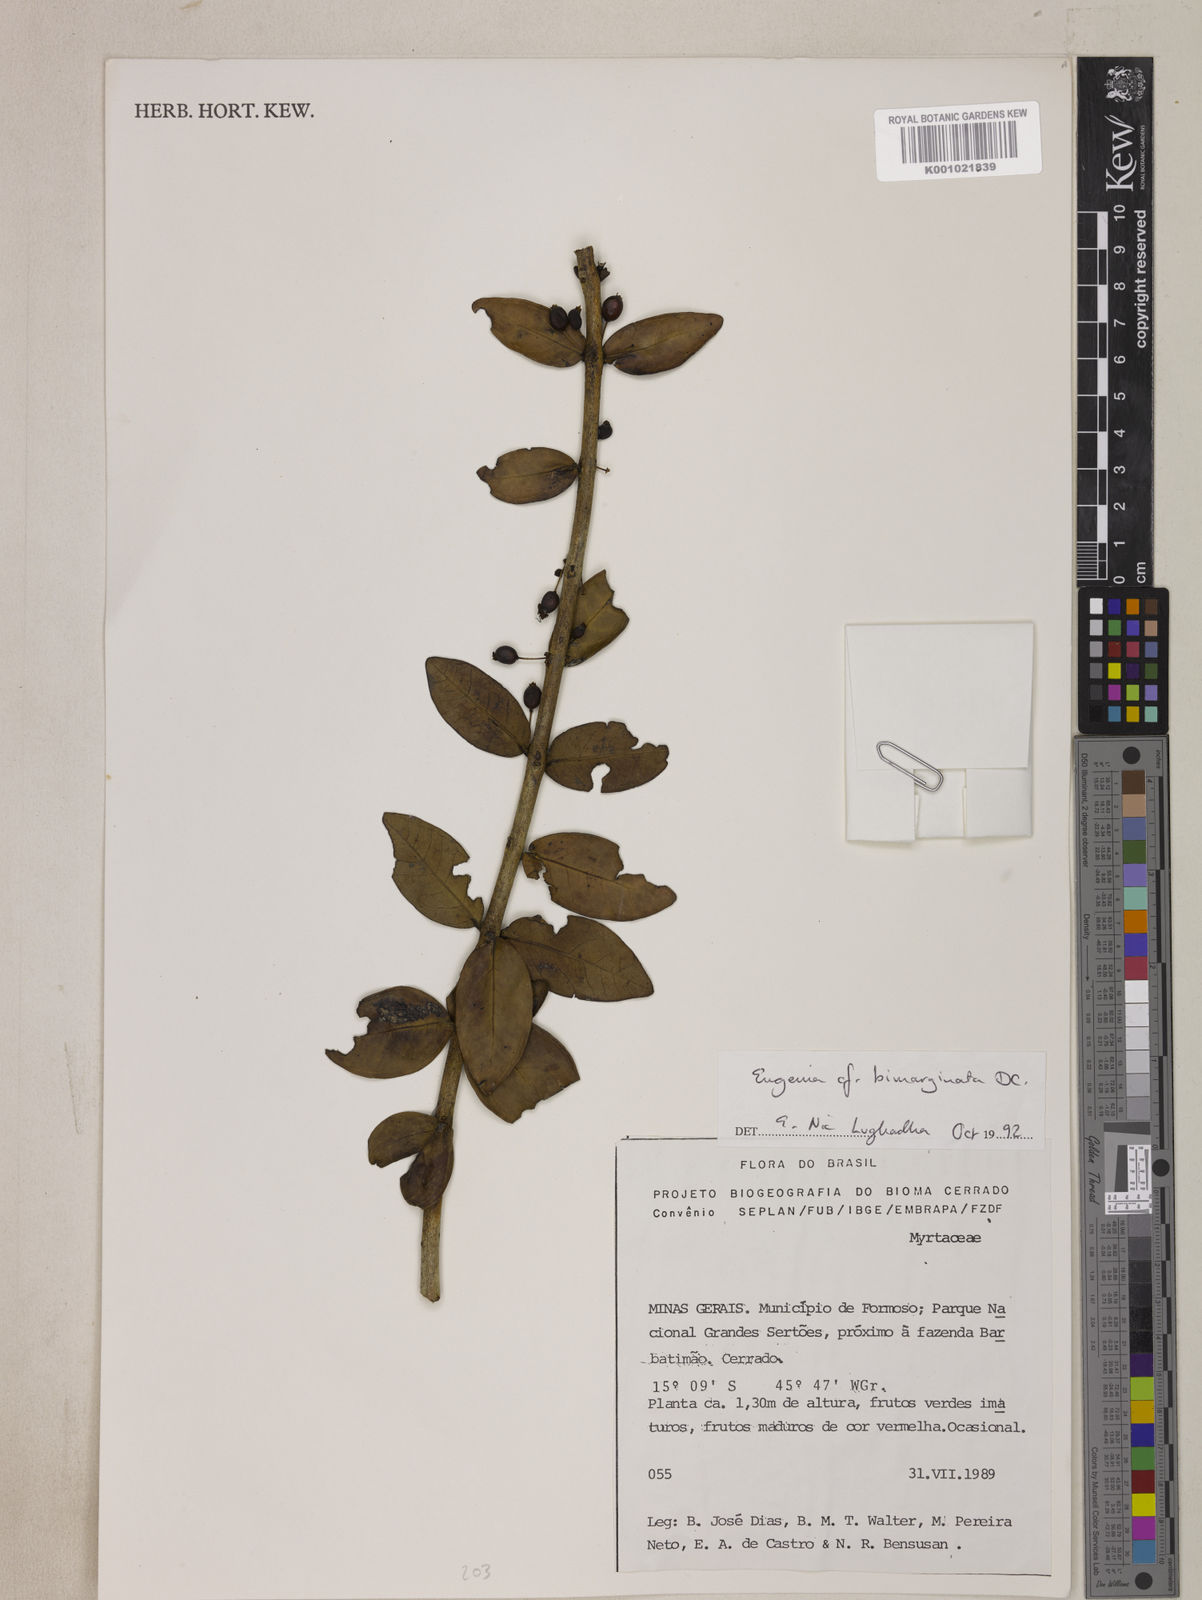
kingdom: Plantae
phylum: Tracheophyta
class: Magnoliopsida
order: Myrtales
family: Myrtaceae
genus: Eugenia
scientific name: Eugenia bimarginata
